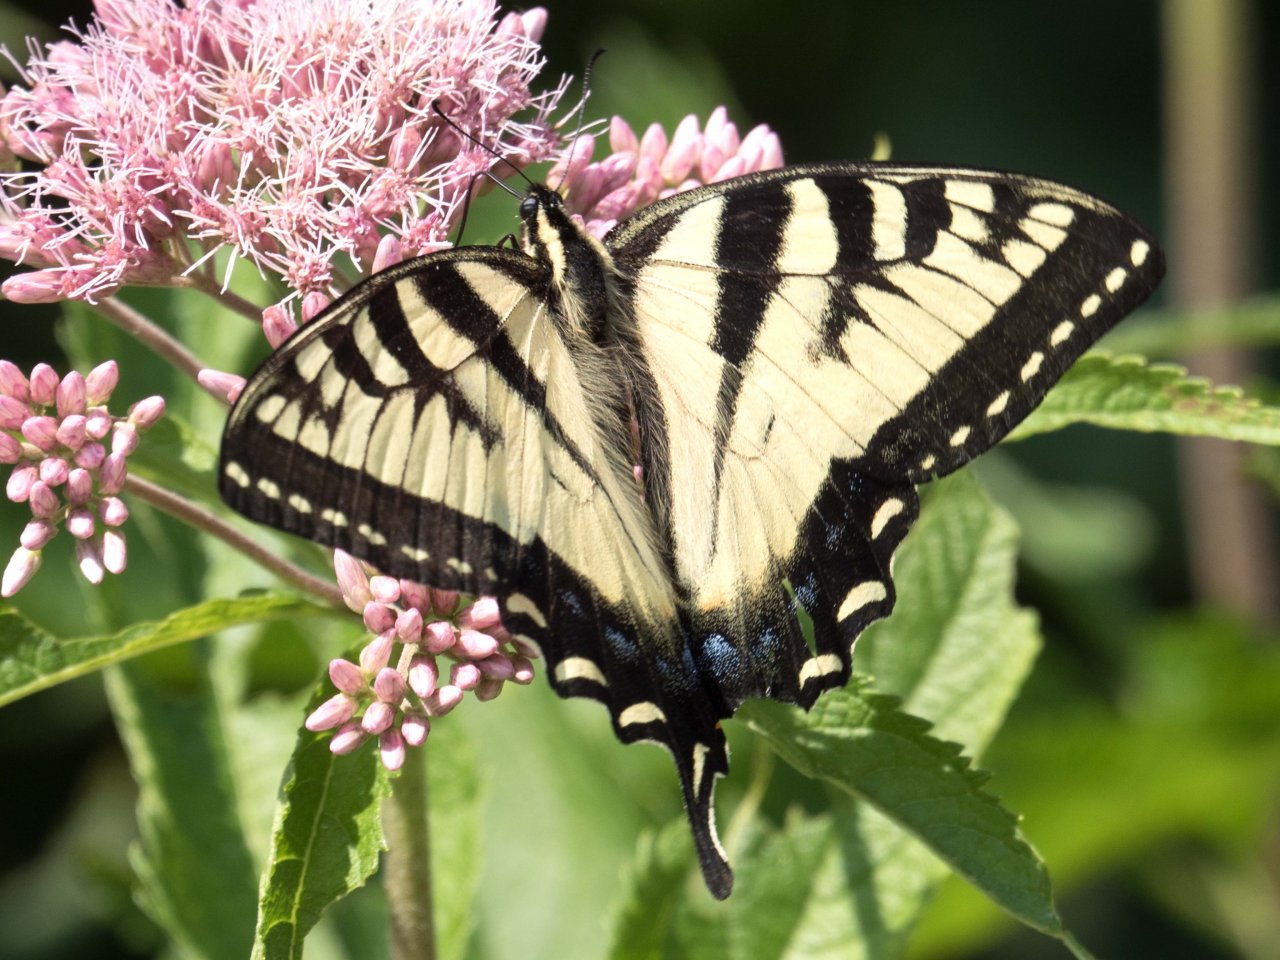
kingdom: Animalia
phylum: Arthropoda
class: Insecta
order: Lepidoptera
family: Papilionidae
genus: Pterourus
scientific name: Pterourus
